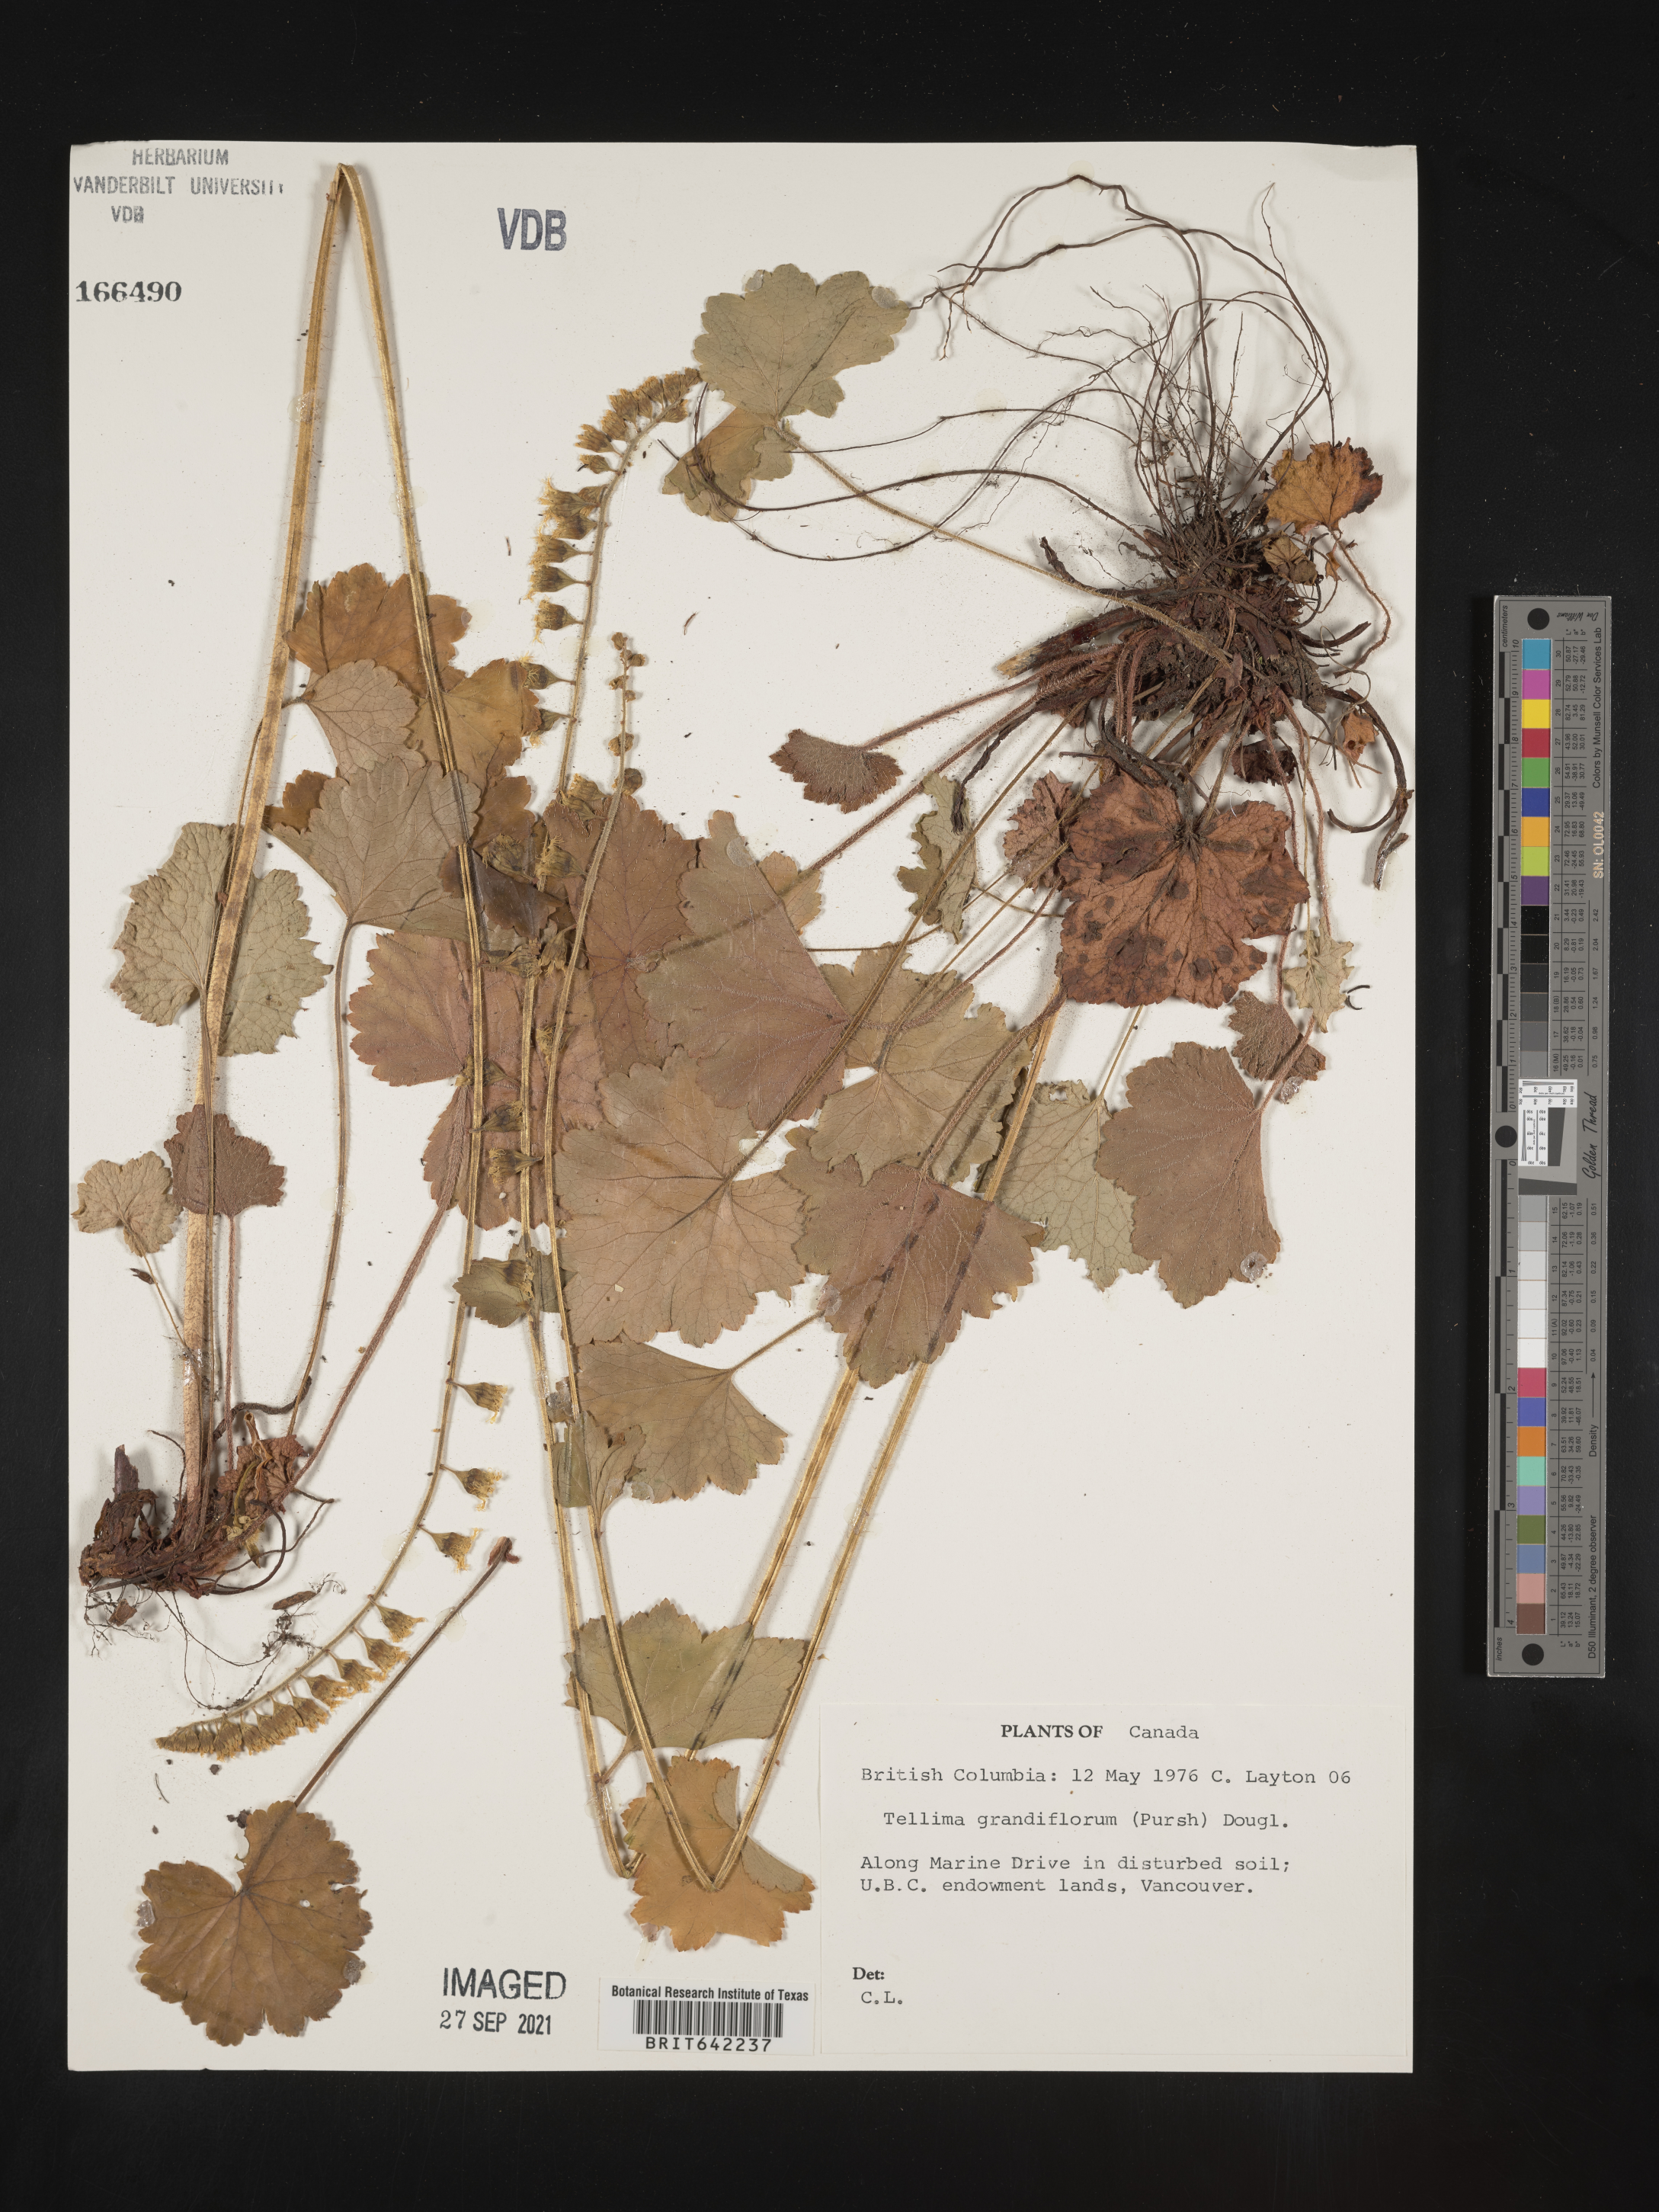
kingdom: Plantae
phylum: Tracheophyta
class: Magnoliopsida
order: Saxifragales
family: Saxifragaceae
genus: Tellima
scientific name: Tellima
